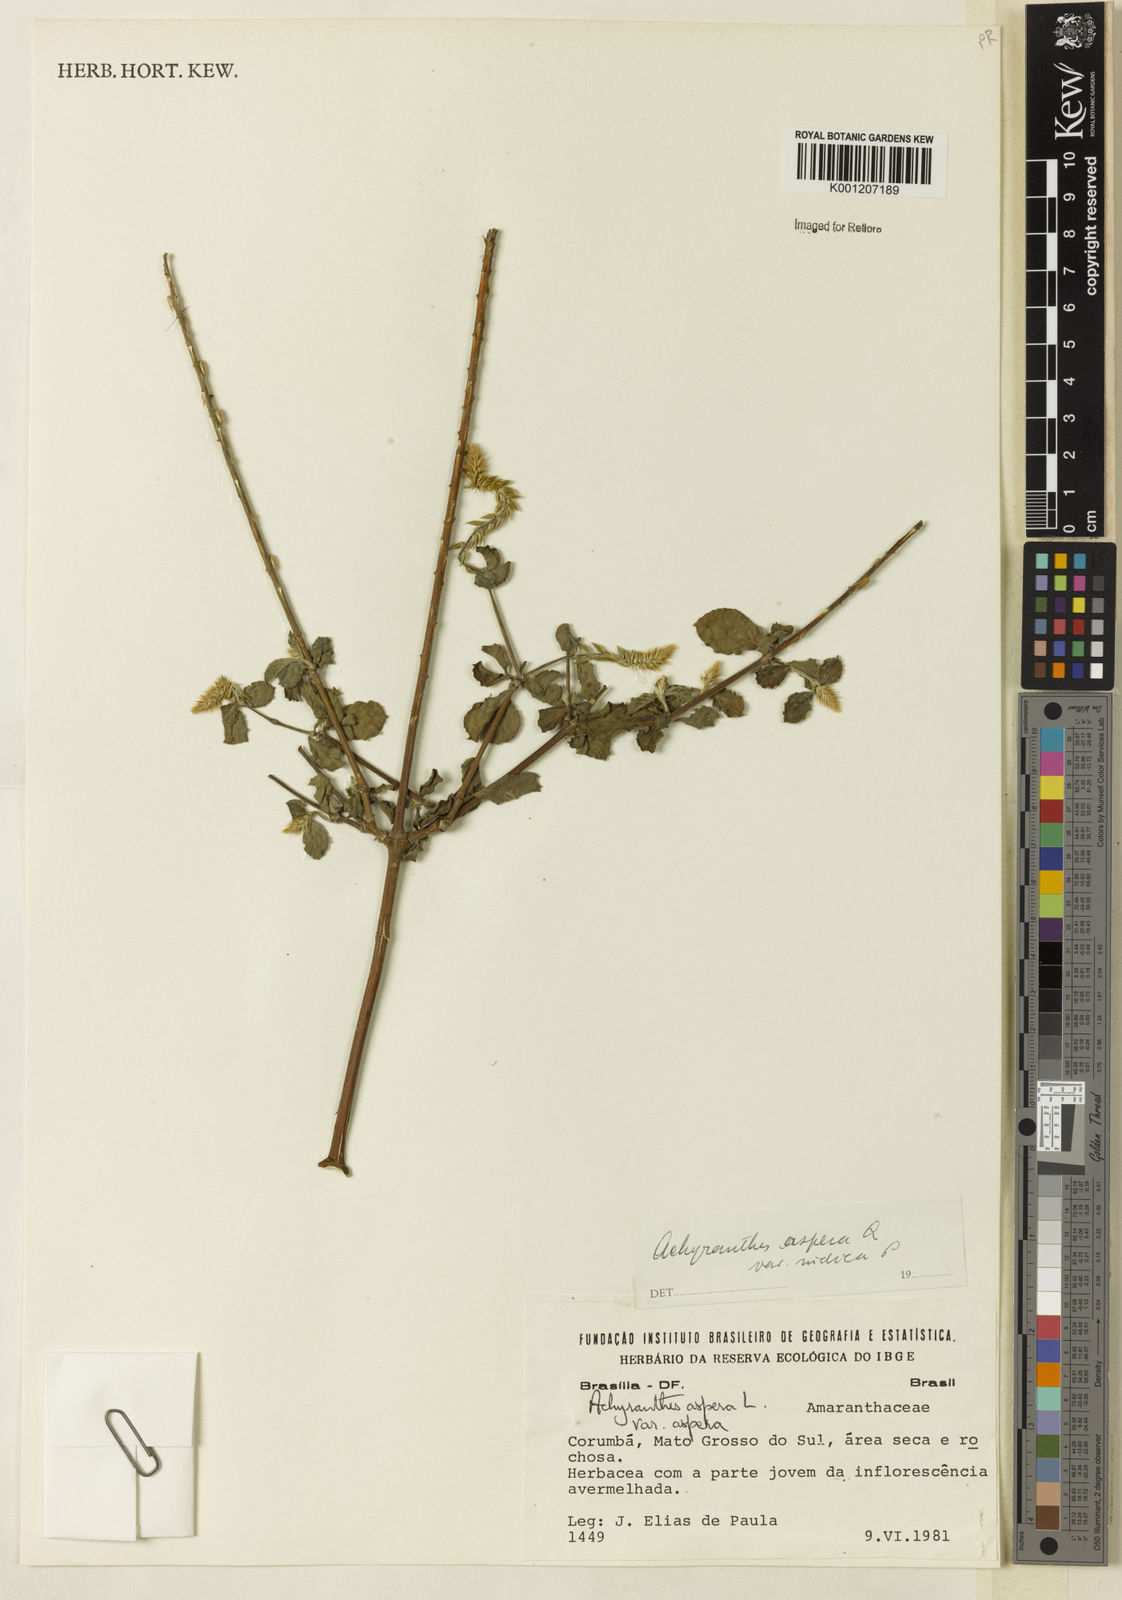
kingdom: Plantae
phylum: Tracheophyta
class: Magnoliopsida
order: Caryophyllales
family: Amaranthaceae
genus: Achyranthes
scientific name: Achyranthes aspera
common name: Devil's horsewhip
